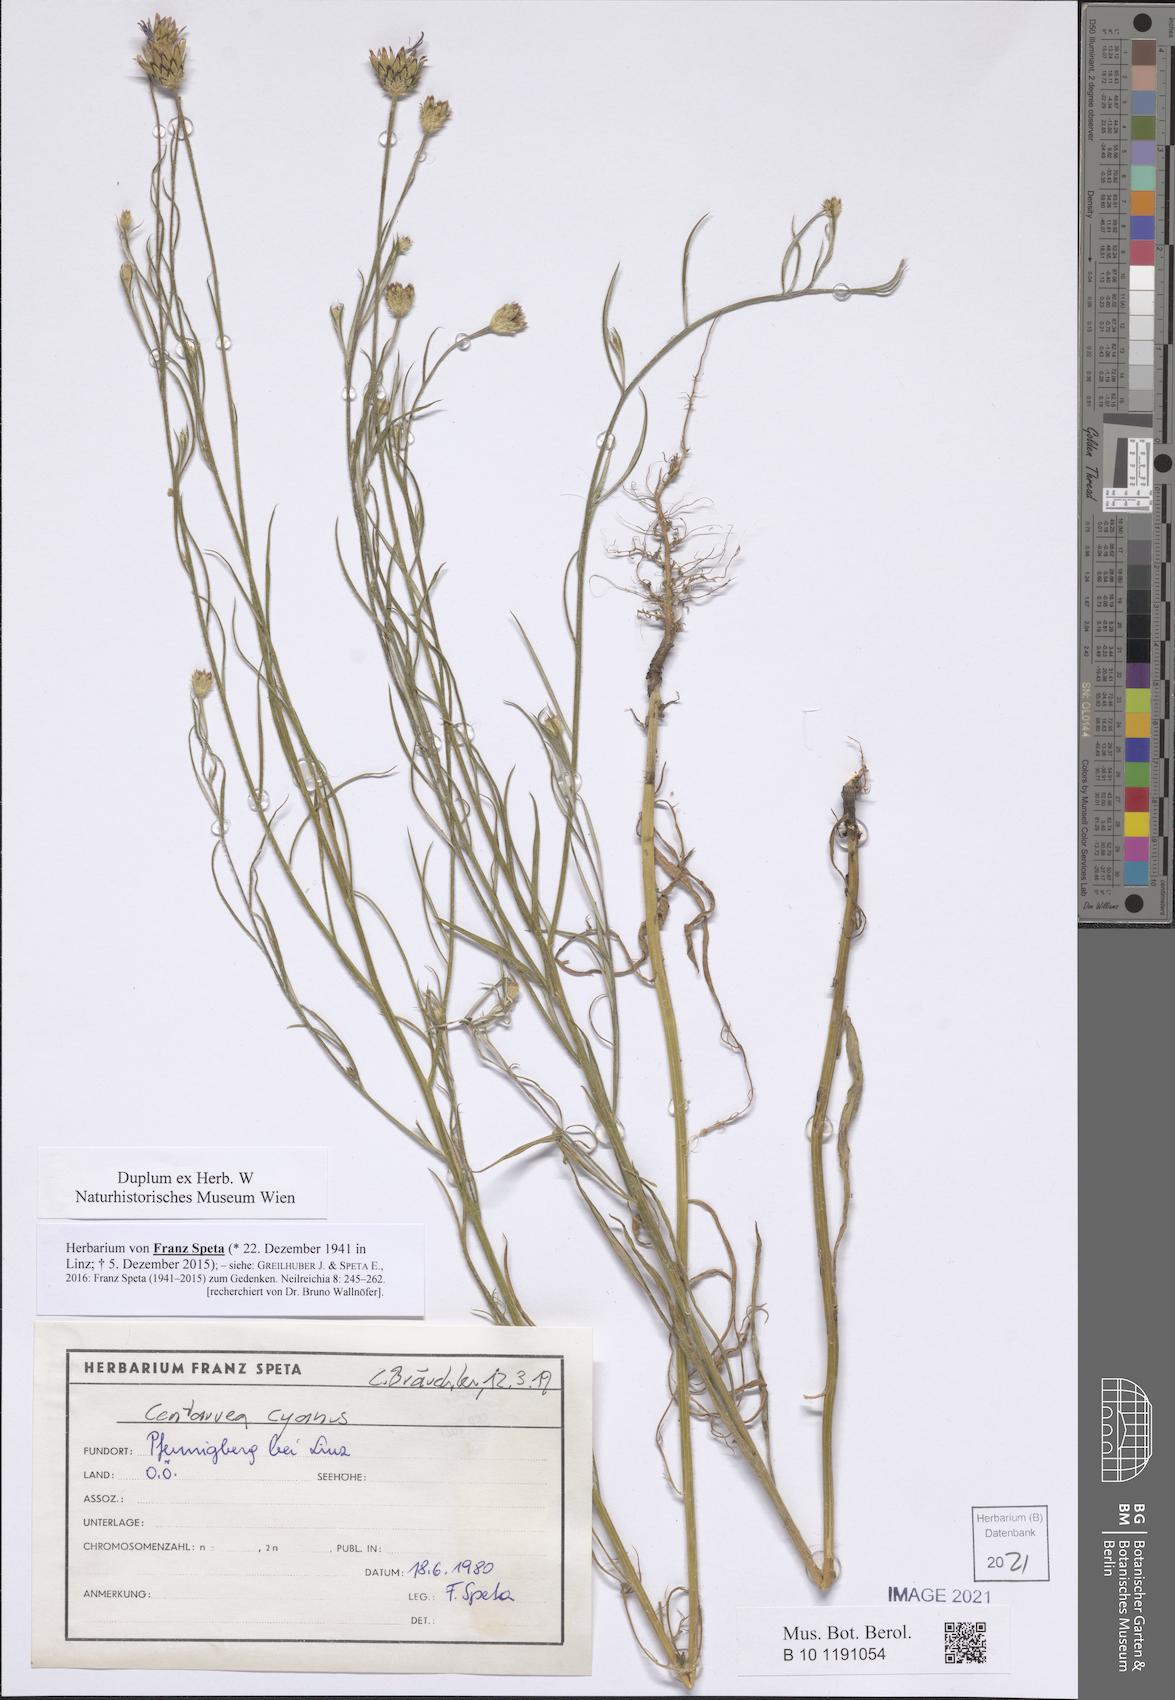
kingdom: Plantae
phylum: Tracheophyta
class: Magnoliopsida
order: Asterales
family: Asteraceae
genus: Centaurea
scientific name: Centaurea cyanus
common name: Cornflower
